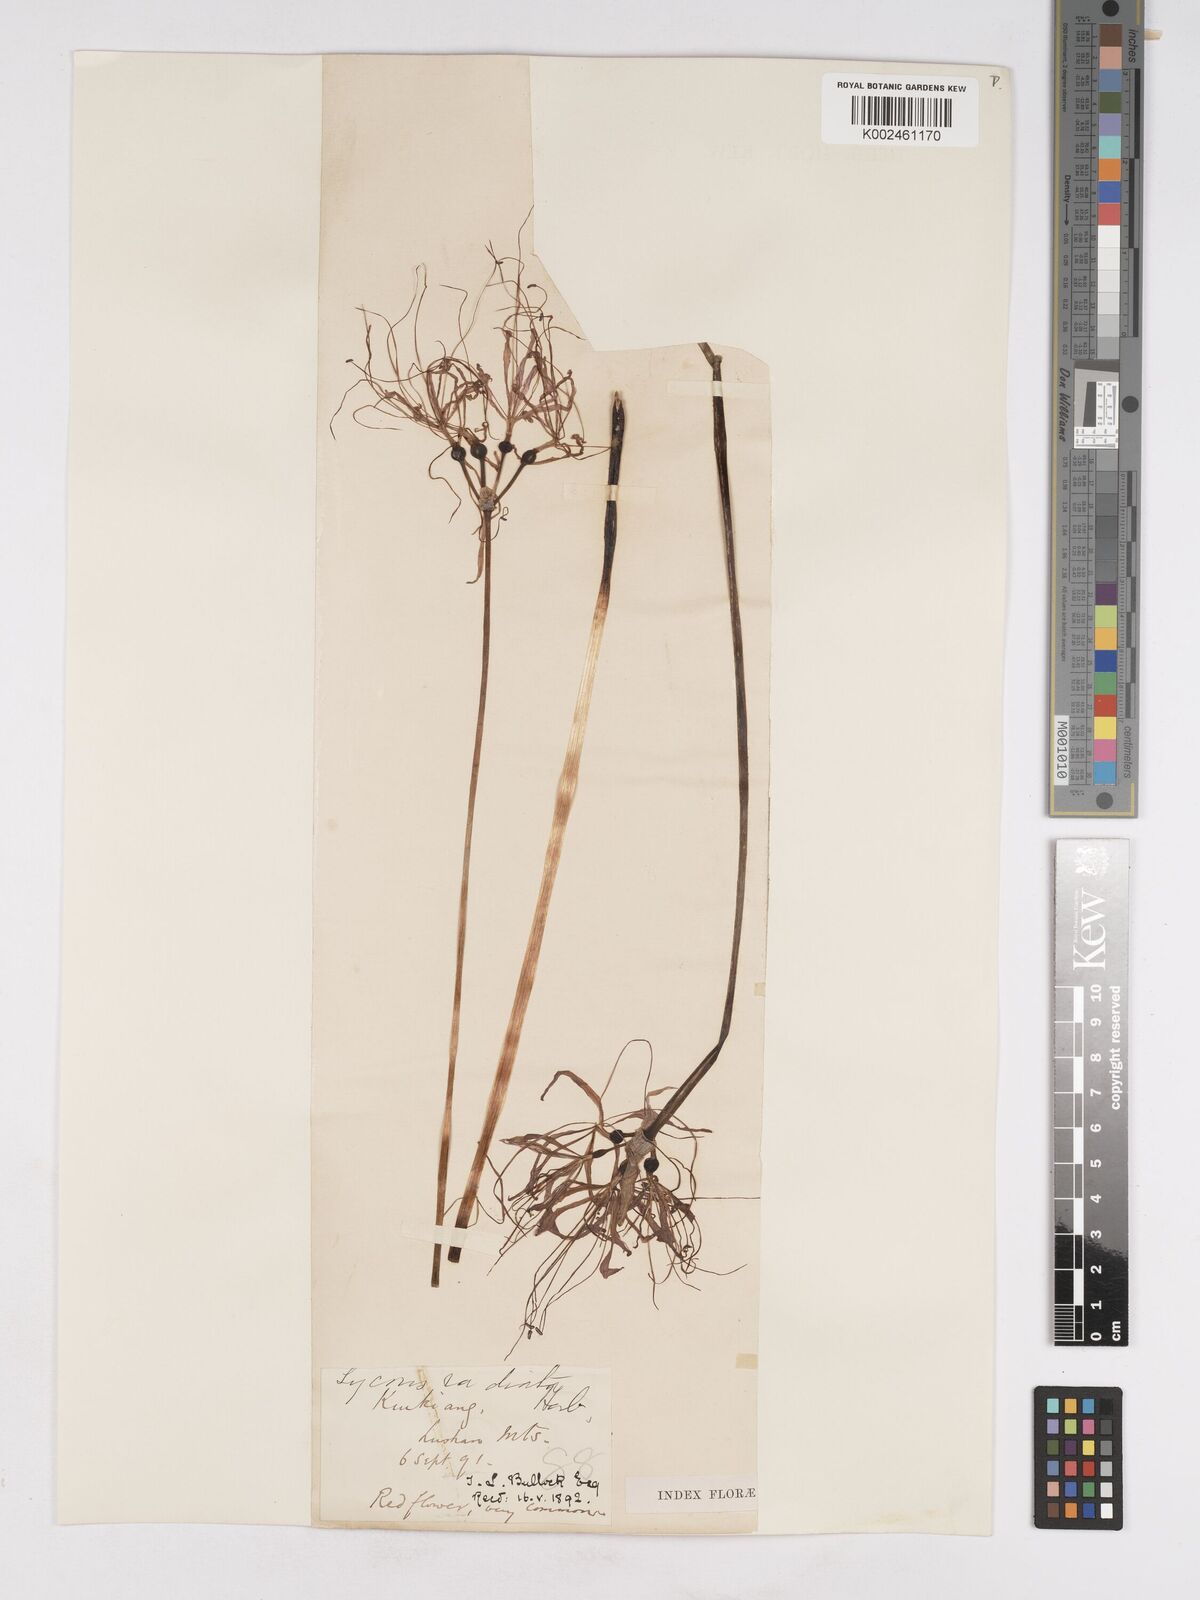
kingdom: Plantae
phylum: Tracheophyta
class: Liliopsida
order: Asparagales
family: Amaryllidaceae
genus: Lycoris
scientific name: Lycoris radiata
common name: Red spider lily
